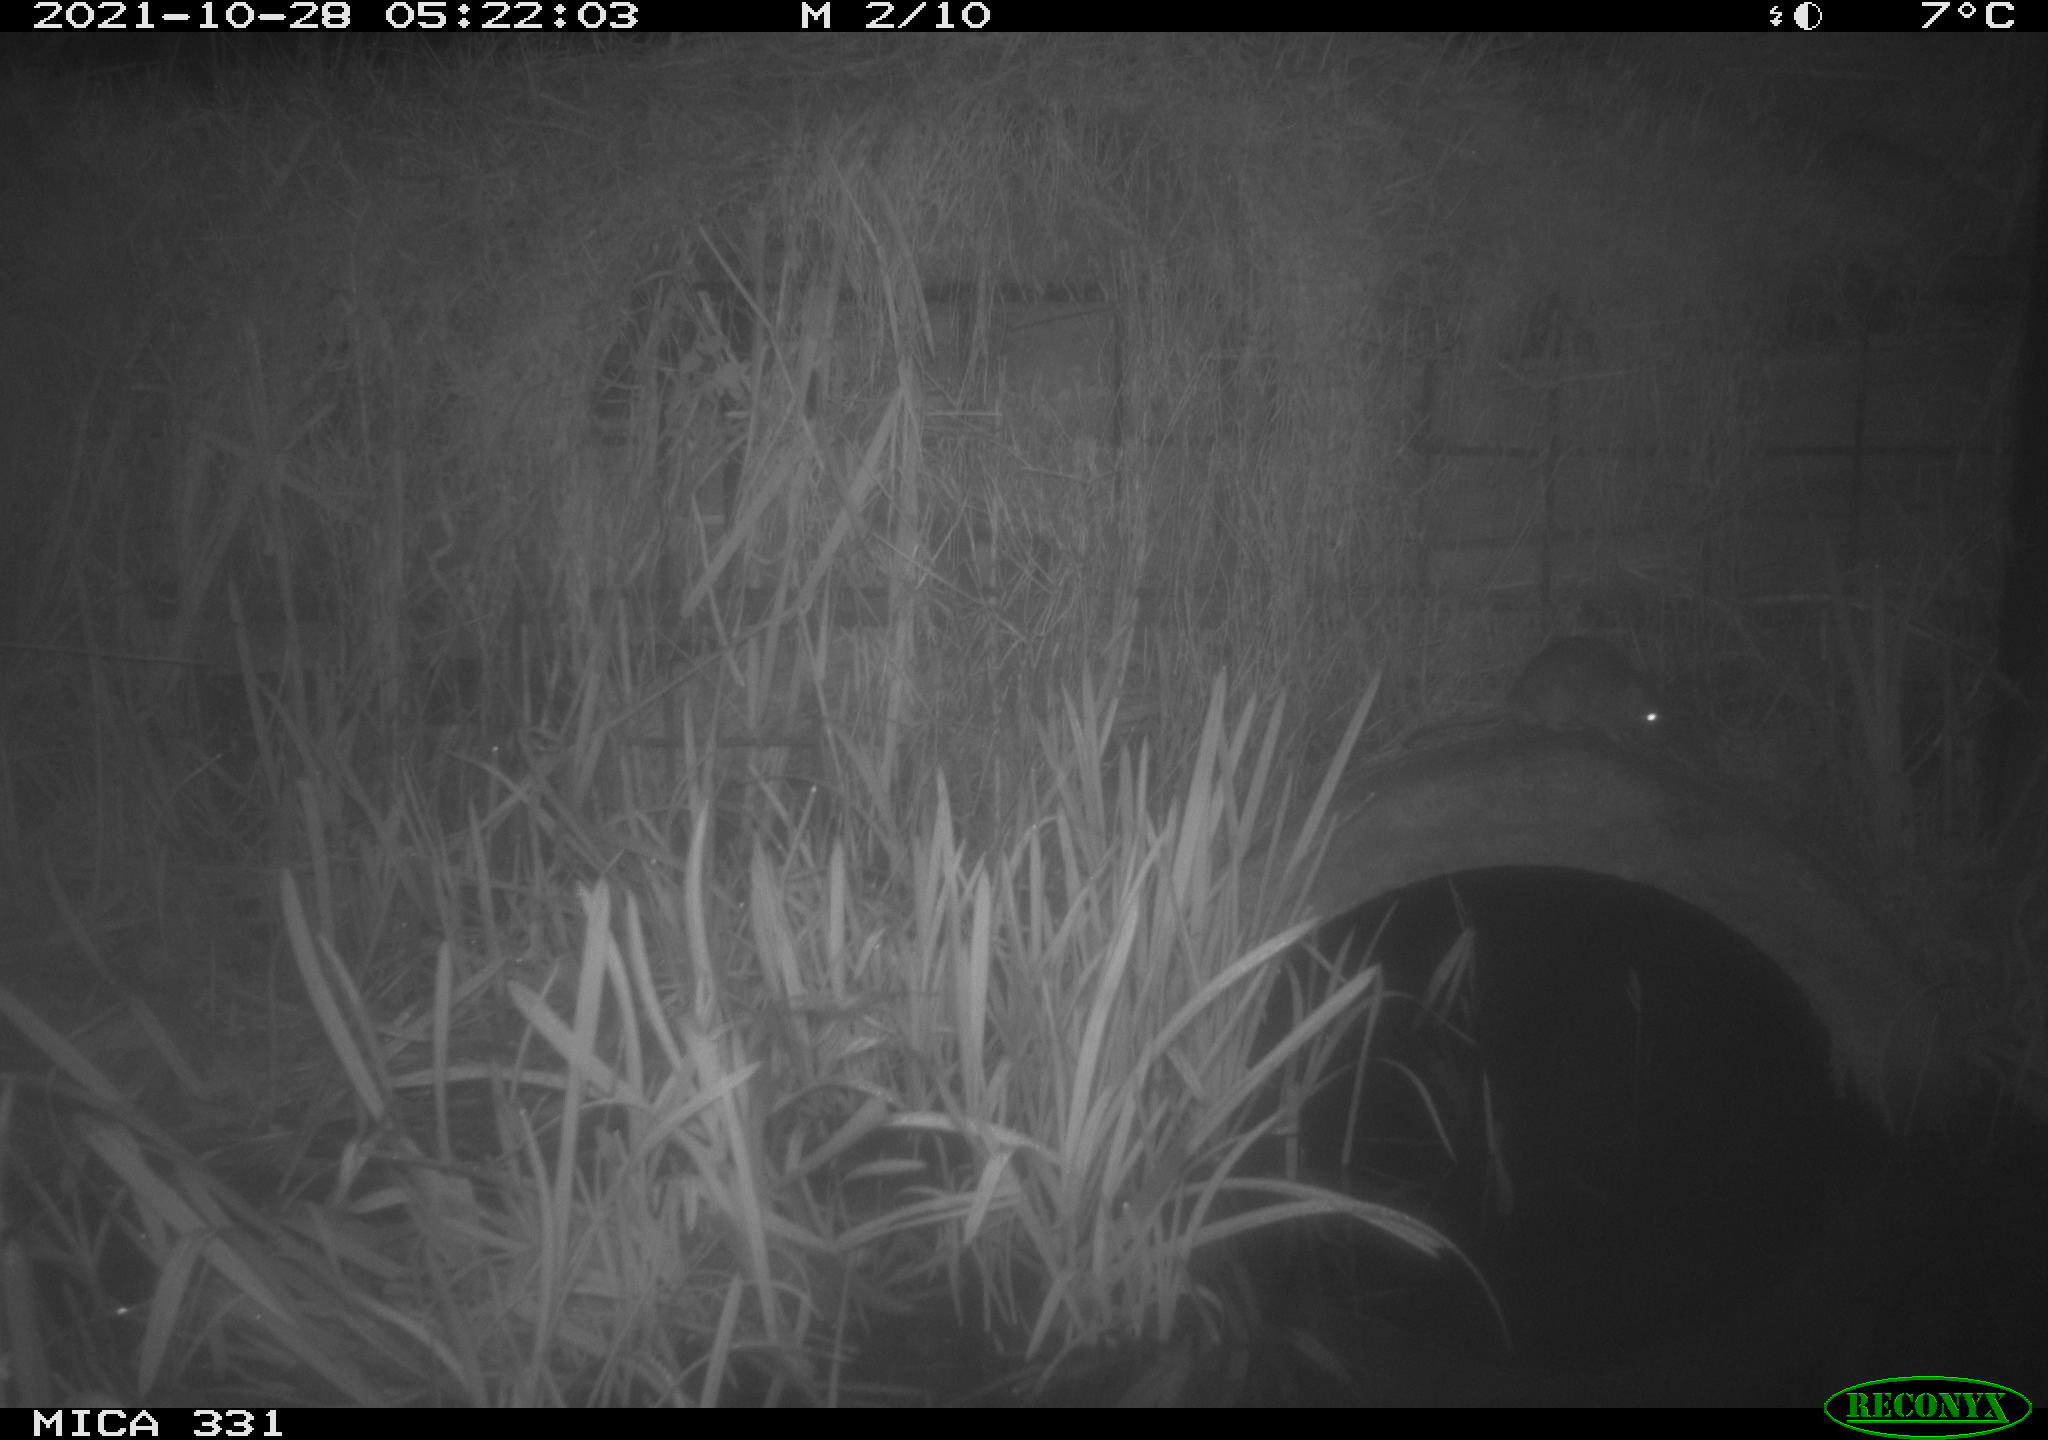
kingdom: Animalia
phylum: Chordata
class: Mammalia
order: Rodentia
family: Muridae
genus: Rattus
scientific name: Rattus norvegicus
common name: Brown rat
